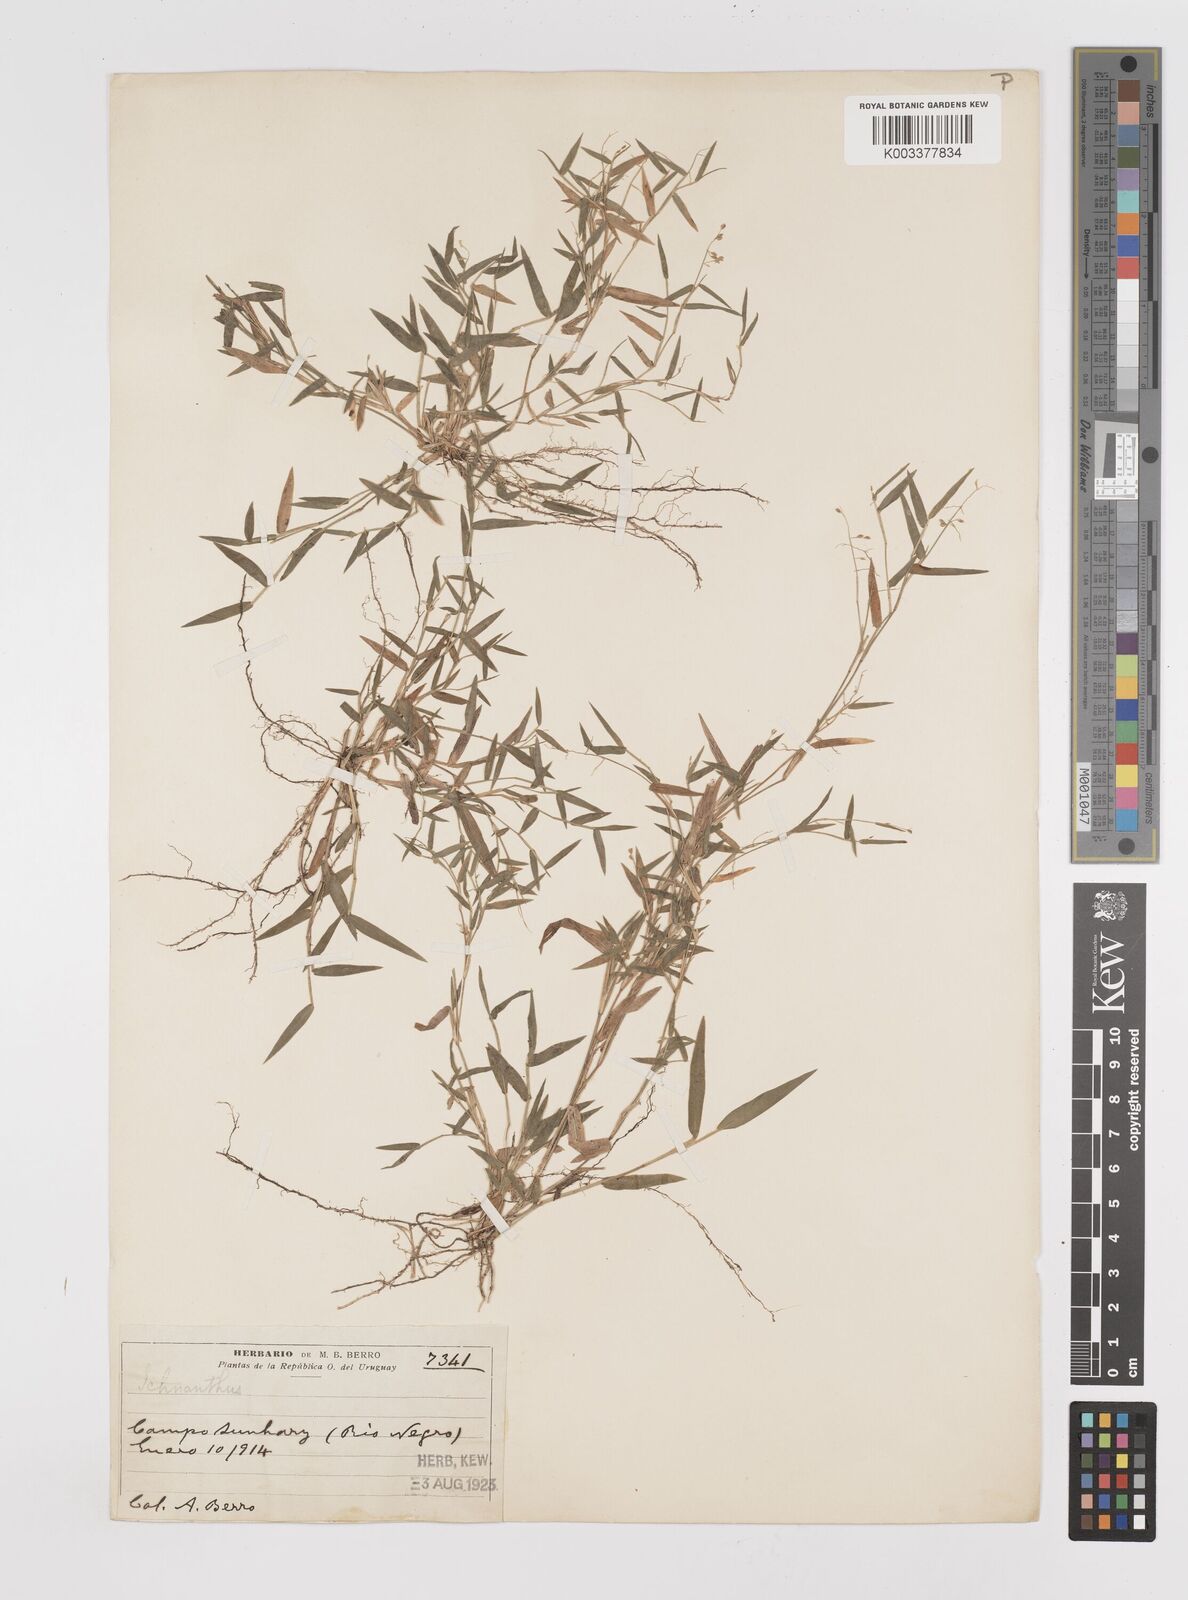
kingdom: Plantae
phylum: Tracheophyta
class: Liliopsida
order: Poales
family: Poaceae
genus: Dichanthelium
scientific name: Dichanthelium sabulorum
